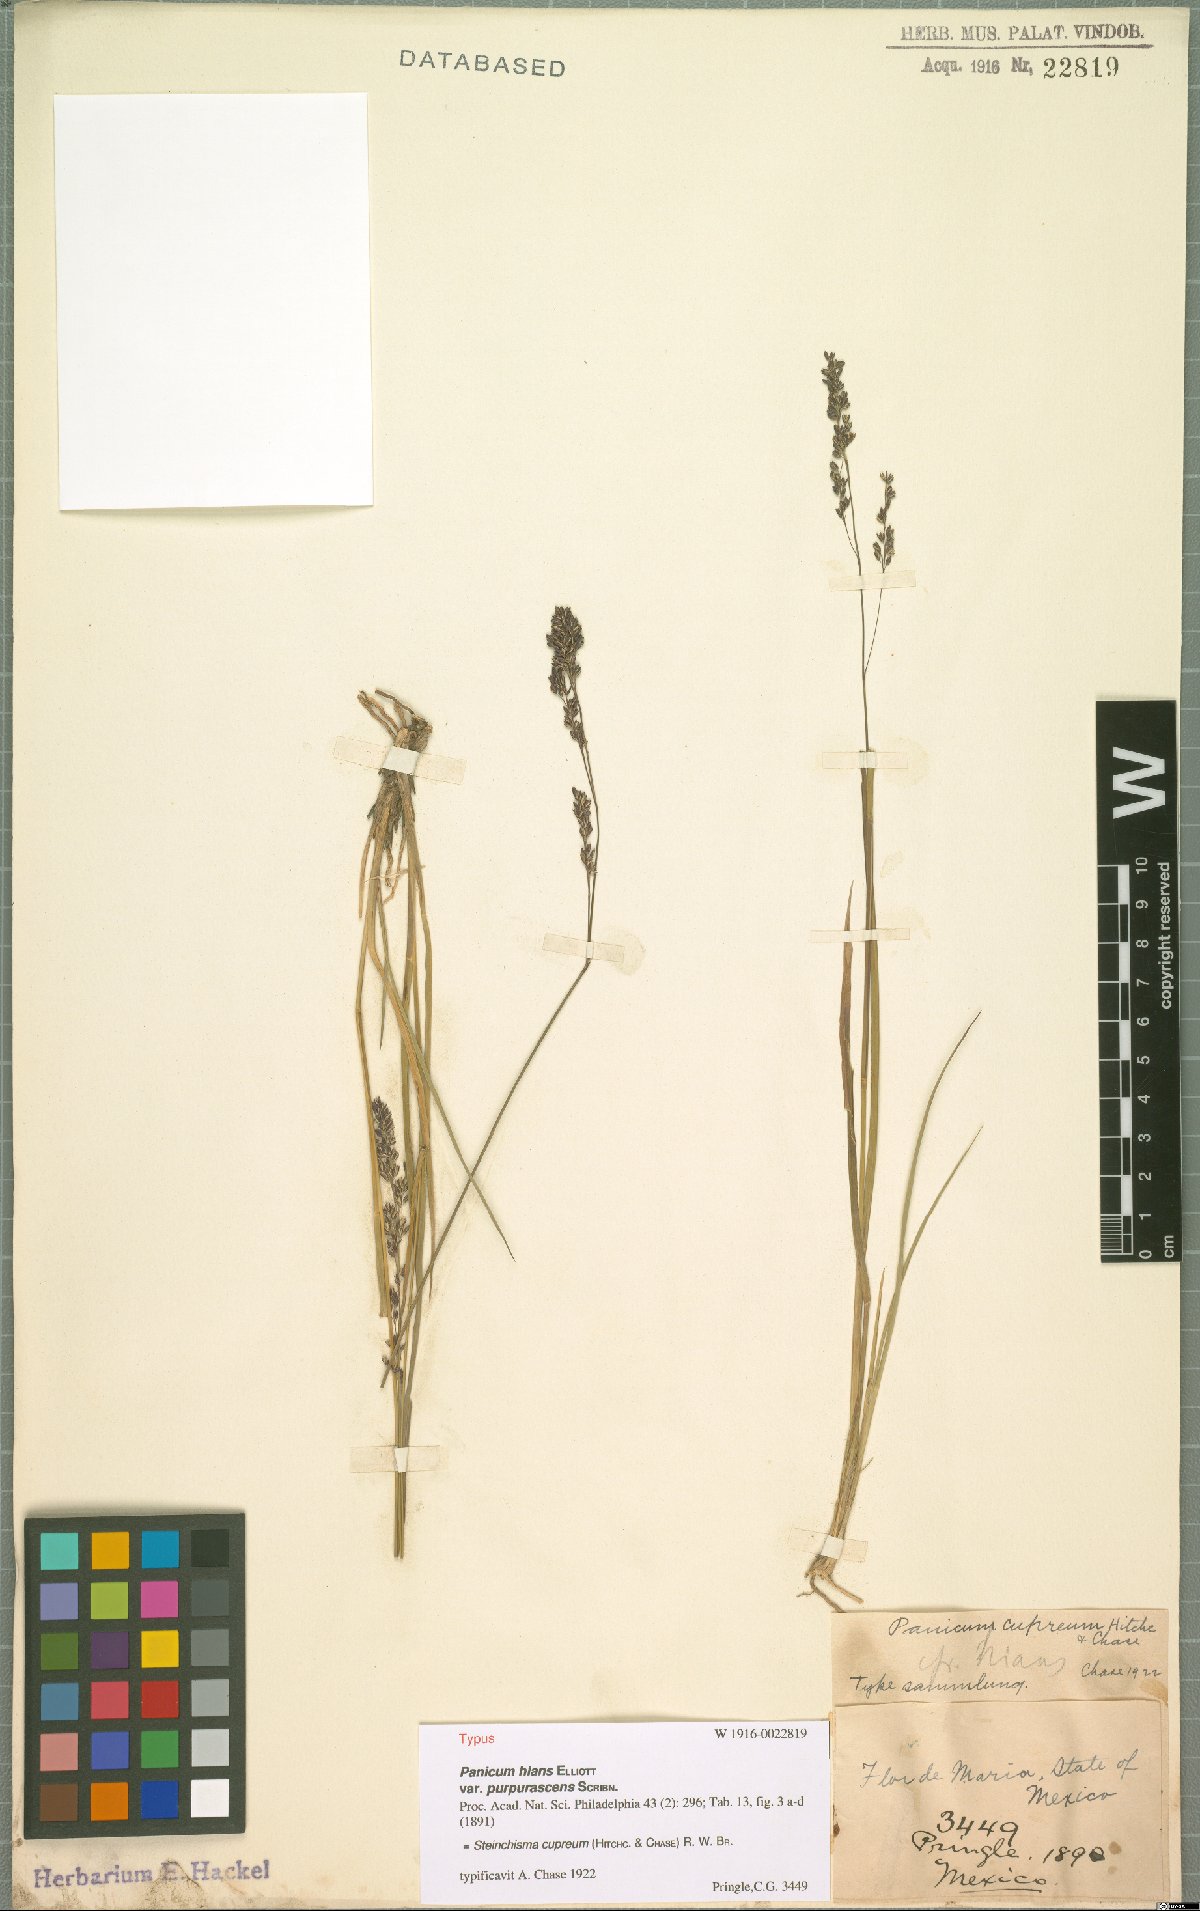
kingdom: Plantae
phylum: Tracheophyta
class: Liliopsida
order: Poales
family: Poaceae
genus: Steinchisma
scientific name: Steinchisma cupreum
